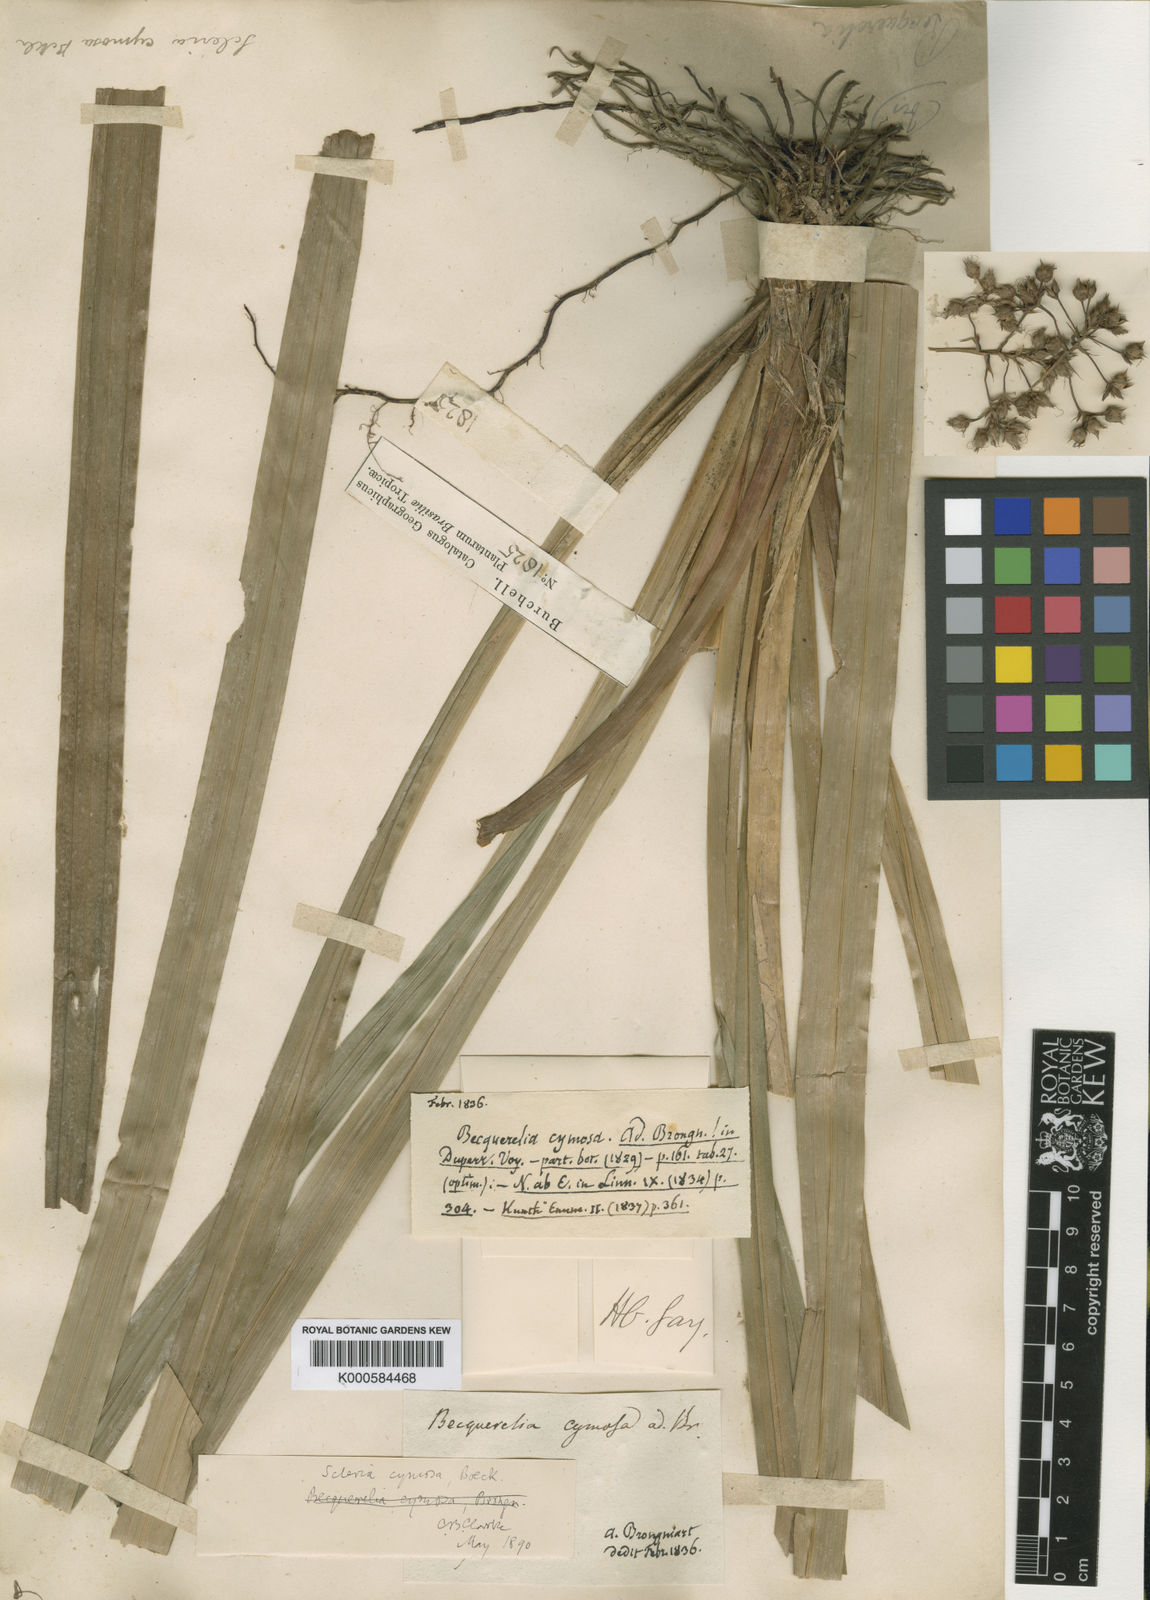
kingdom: Plantae
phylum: Tracheophyta
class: Liliopsida
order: Poales
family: Cyperaceae
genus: Becquerelia
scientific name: Becquerelia cymosa
